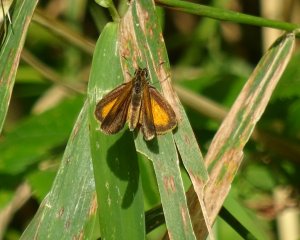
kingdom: Animalia
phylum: Arthropoda
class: Insecta
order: Lepidoptera
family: Hesperiidae
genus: Ancyloxypha
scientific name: Ancyloxypha numitor
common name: Least Skipper
